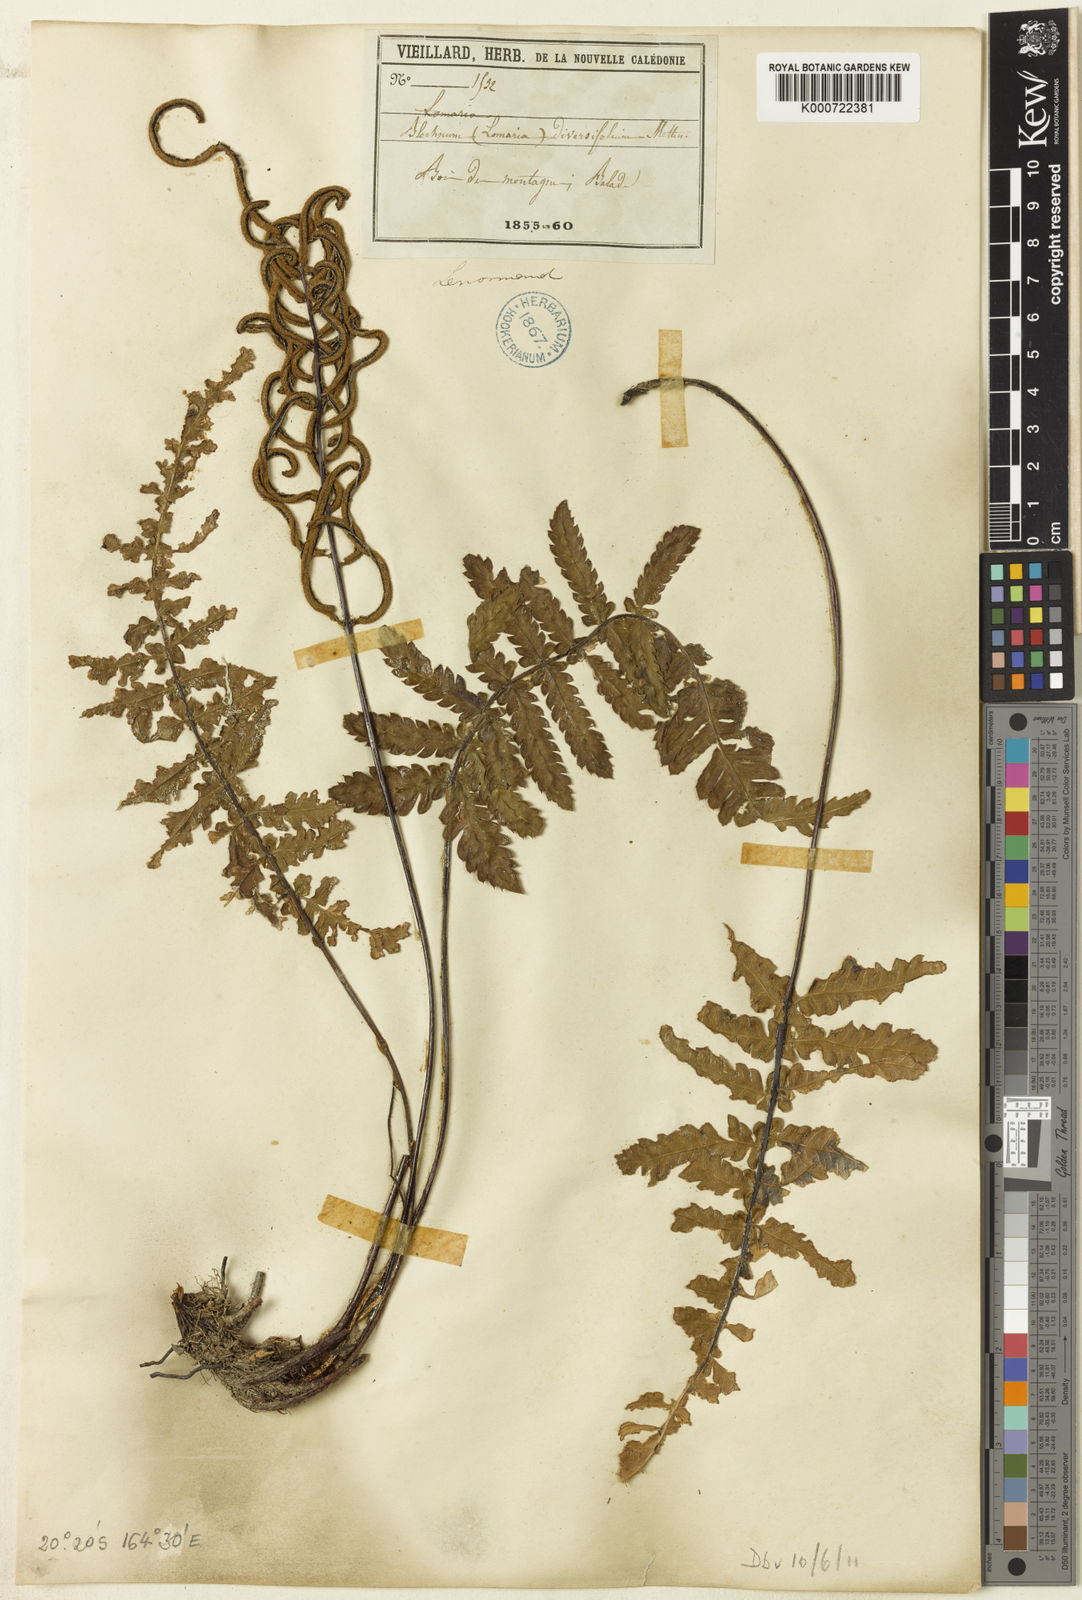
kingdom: Plantae
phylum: Tracheophyta
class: Polypodiopsida
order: Polypodiales
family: Blechnaceae
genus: Diploblechnum
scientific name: Diploblechnum diversifolium
